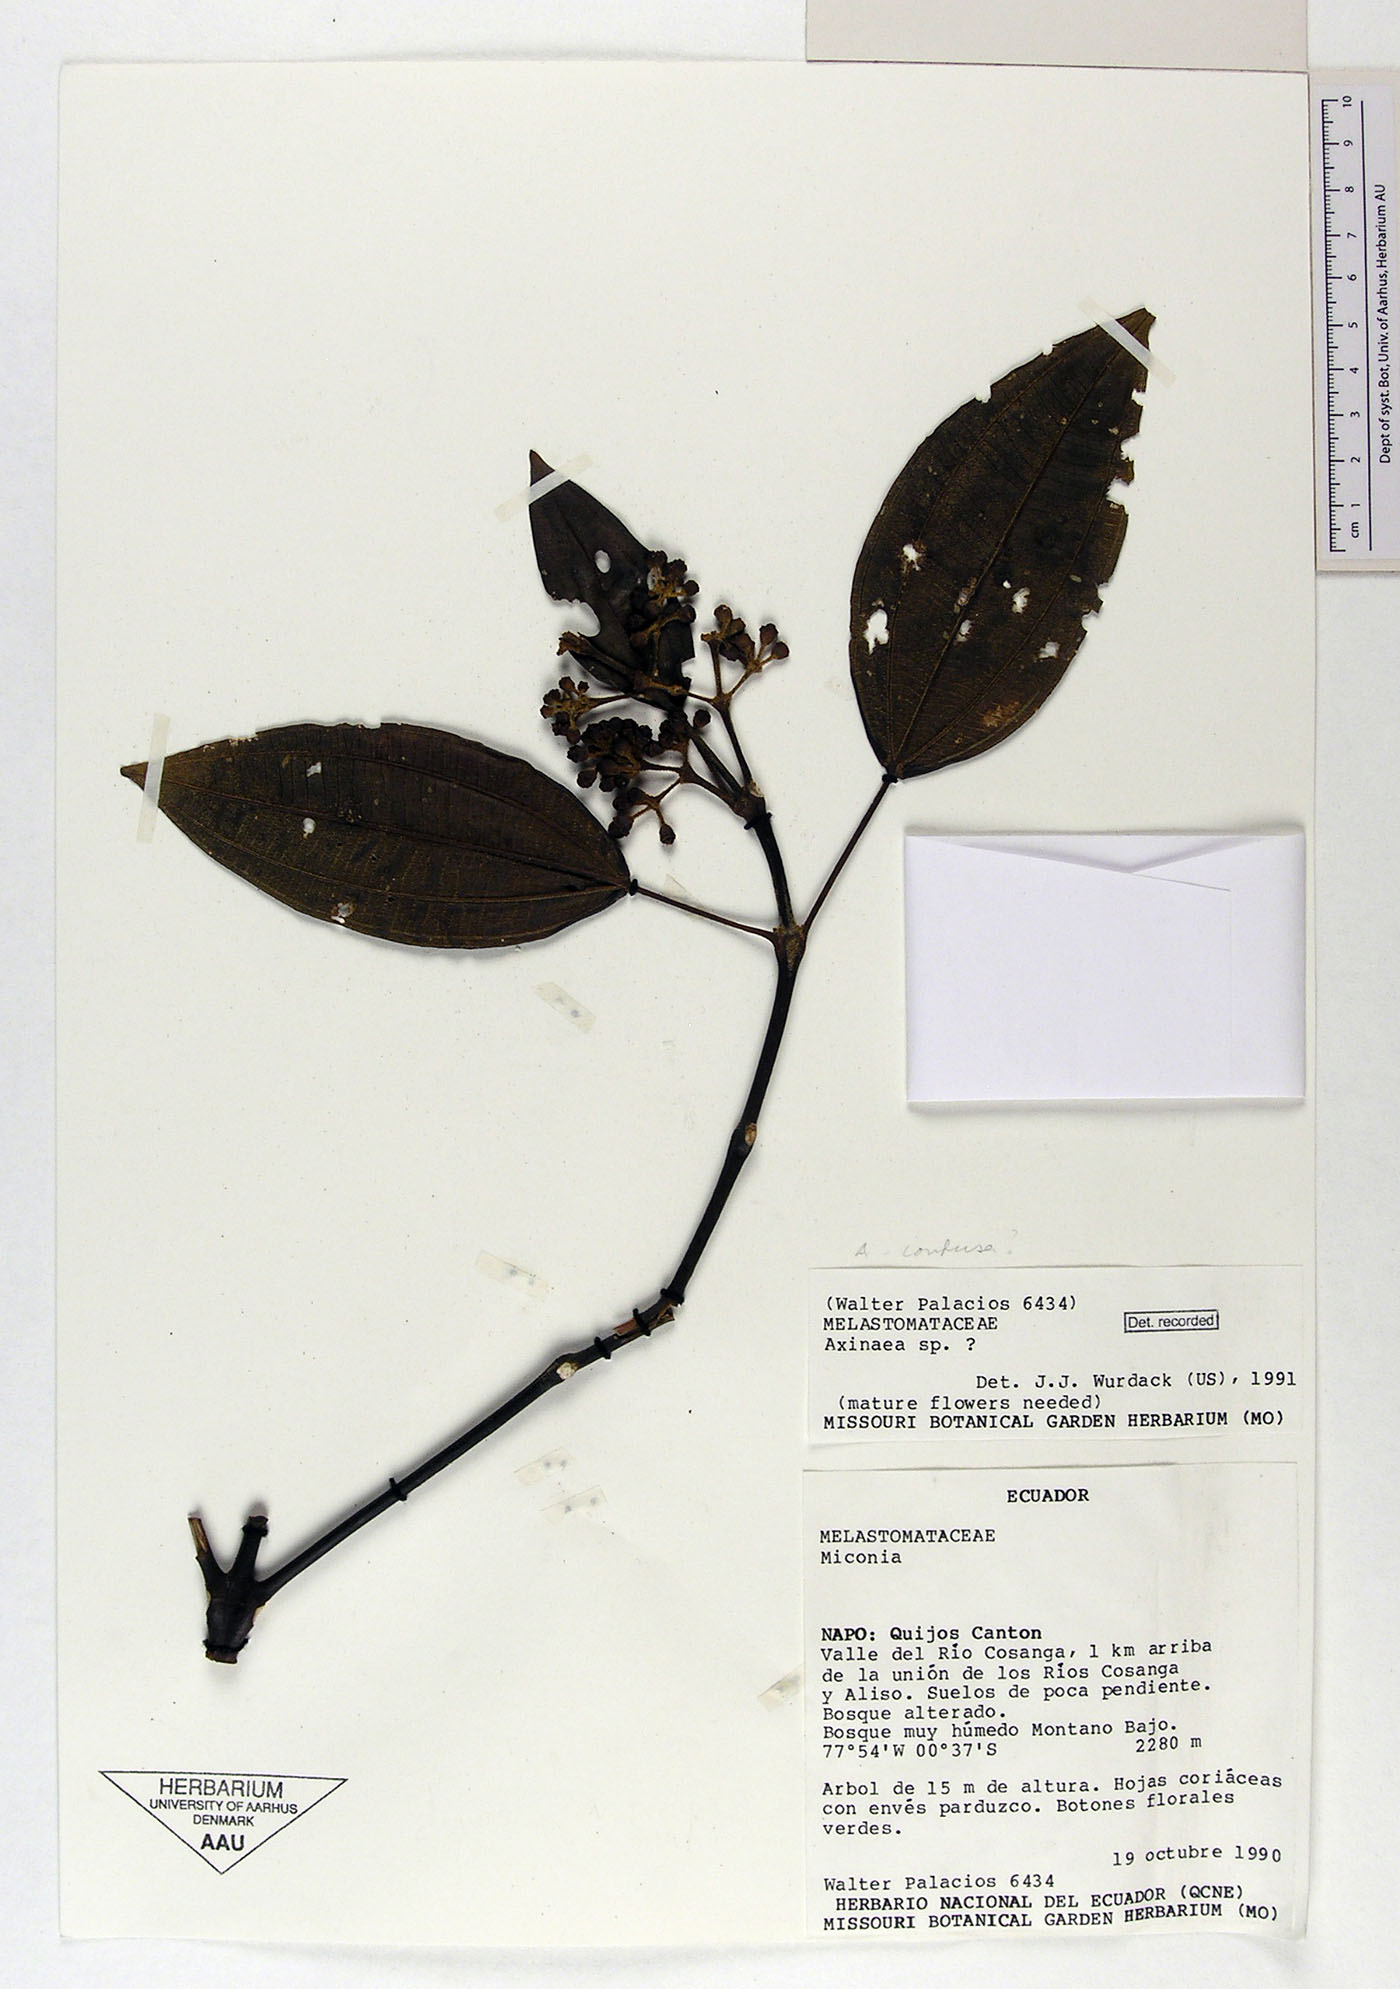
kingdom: Plantae
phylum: Tracheophyta
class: Magnoliopsida
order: Myrtales
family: Melastomataceae
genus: Axinaea
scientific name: Axinaea
